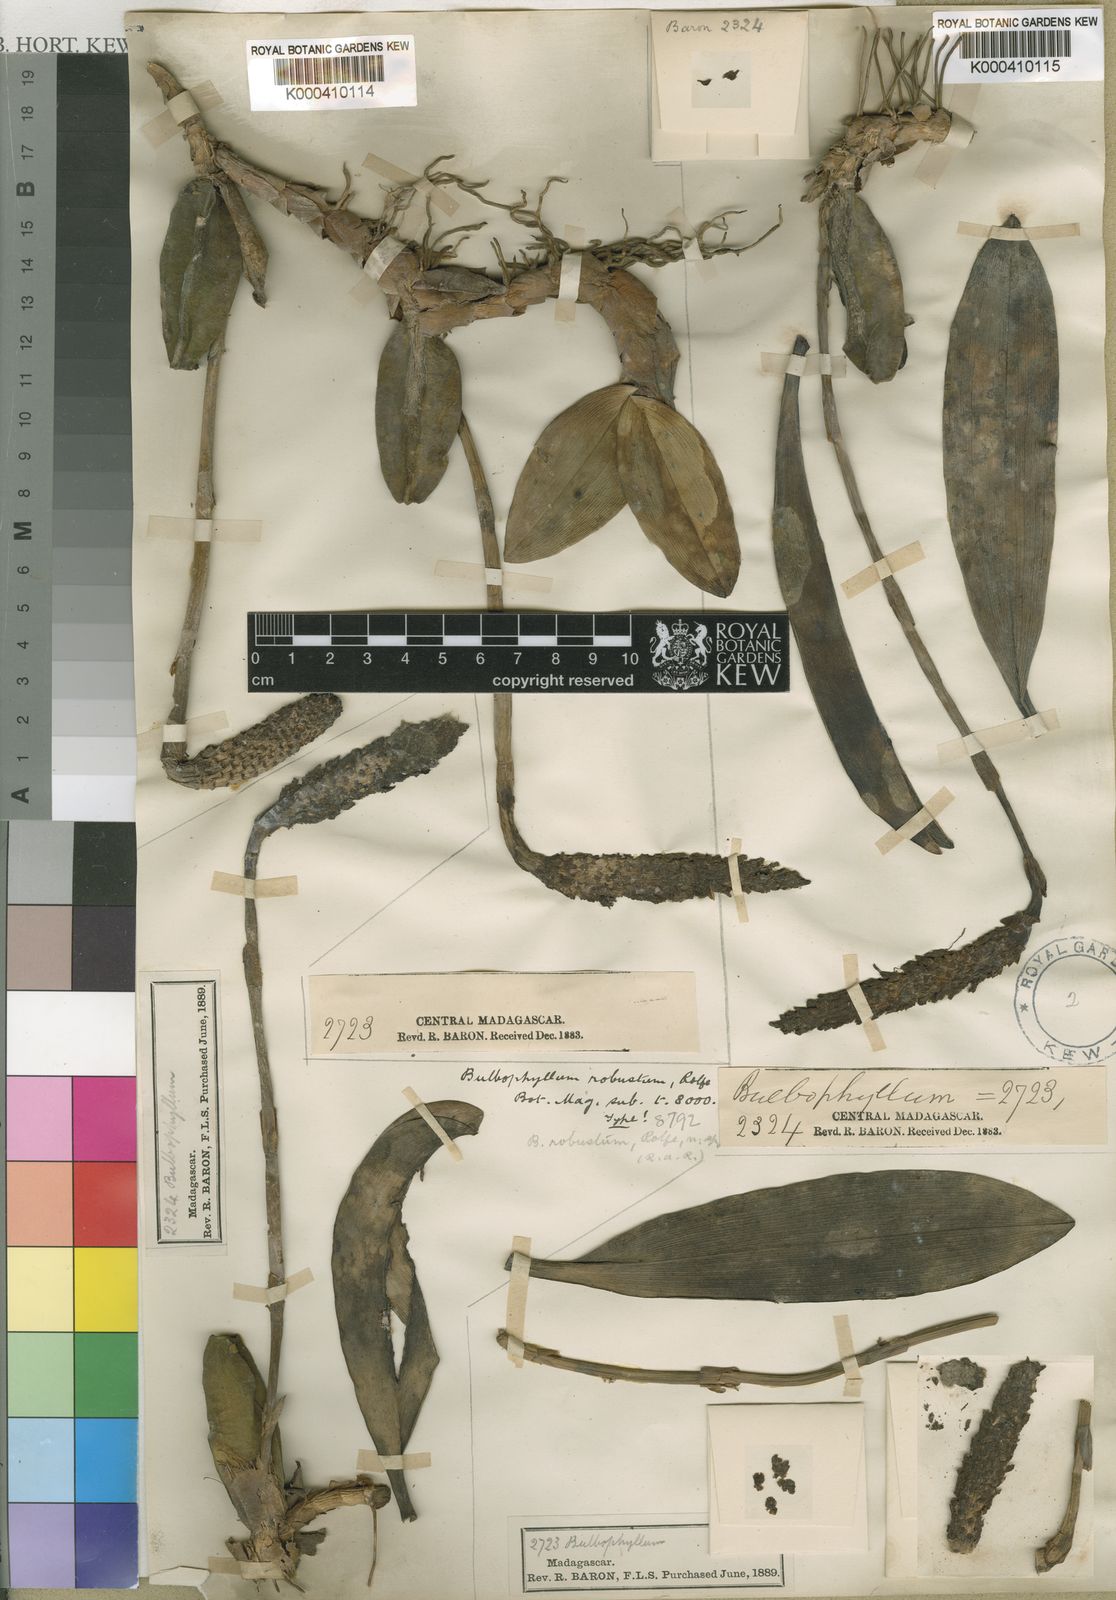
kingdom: Plantae
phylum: Tracheophyta
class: Liliopsida
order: Asparagales
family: Orchidaceae
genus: Bulbophyllum
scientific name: Bulbophyllum coriophorum
